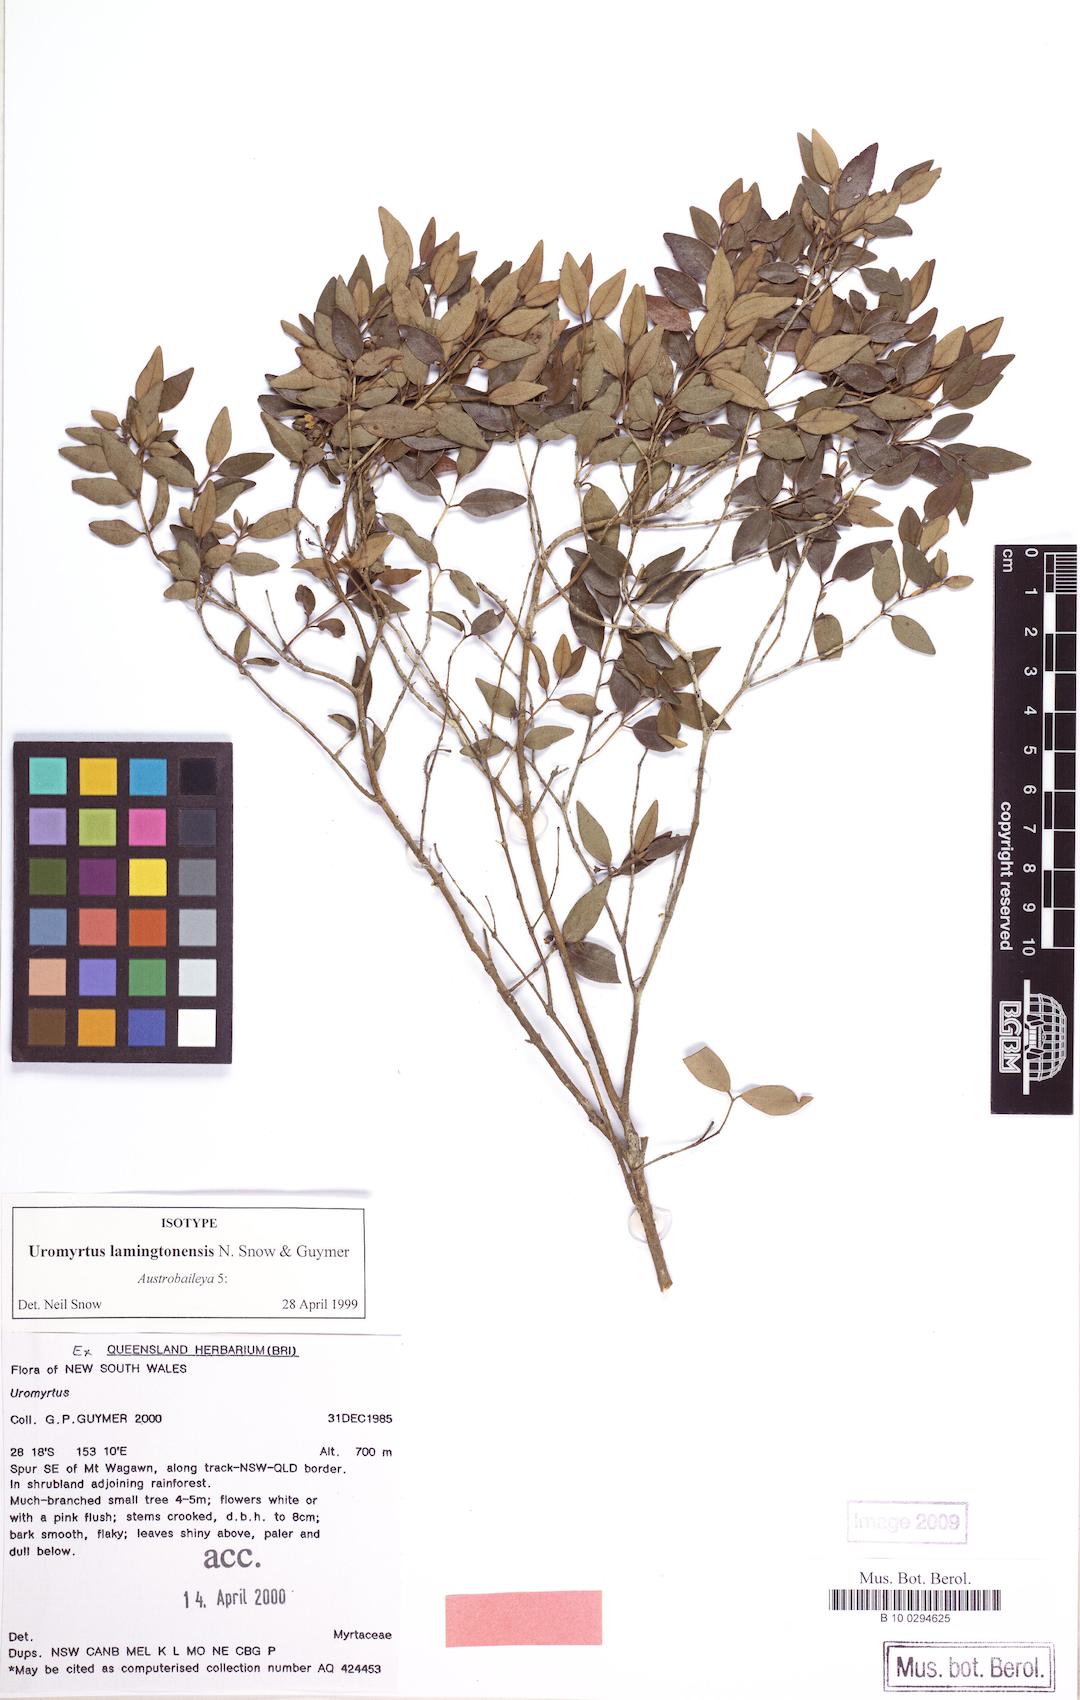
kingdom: Plantae
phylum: Tracheophyta
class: Magnoliopsida
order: Myrtales
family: Myrtaceae
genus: Uromyrtus
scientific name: Uromyrtus lamingtonensis
